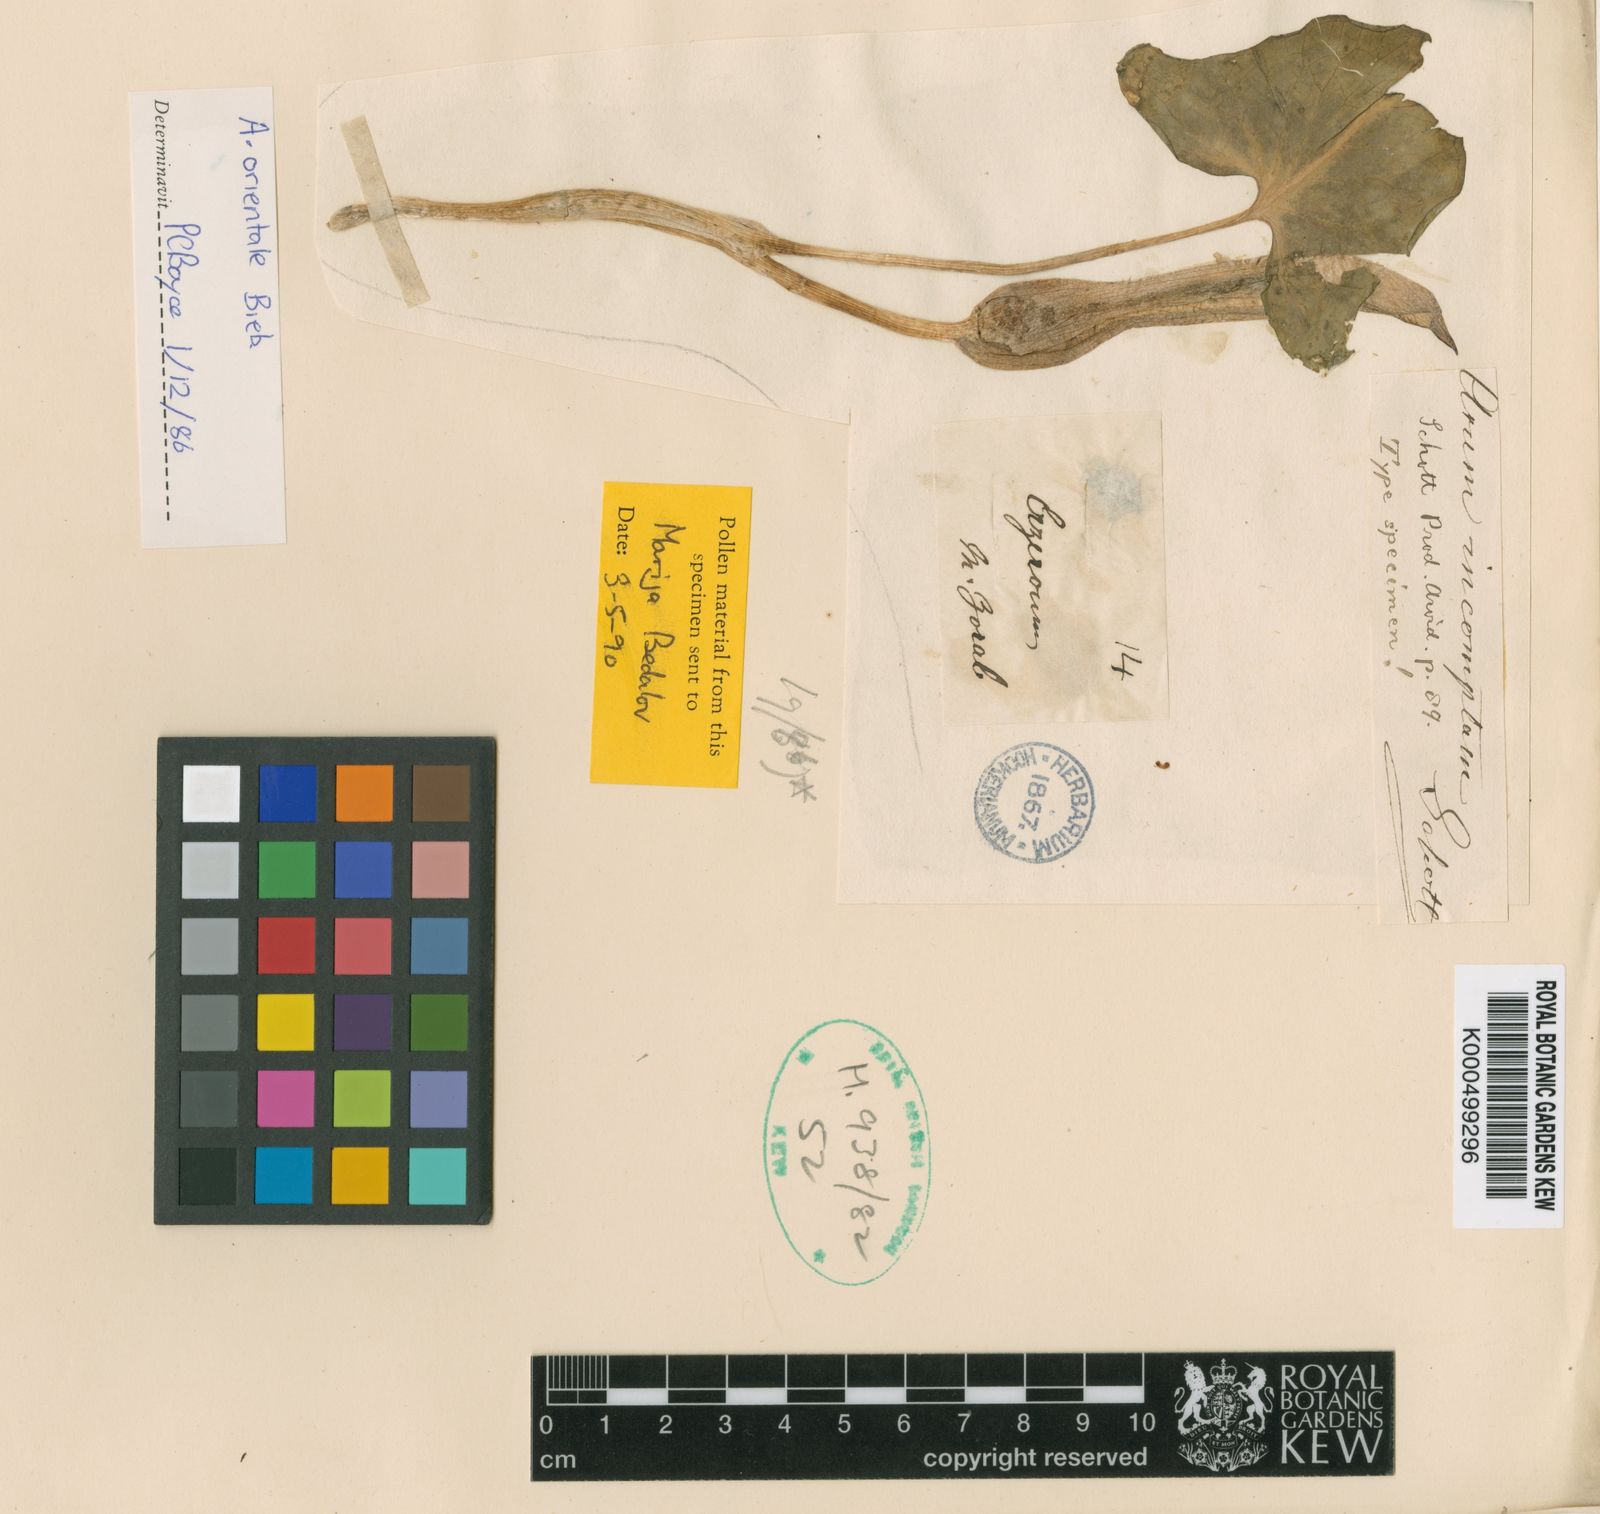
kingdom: Plantae
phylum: Tracheophyta
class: Liliopsida
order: Alismatales
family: Araceae
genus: Arum
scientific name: Arum orientale
